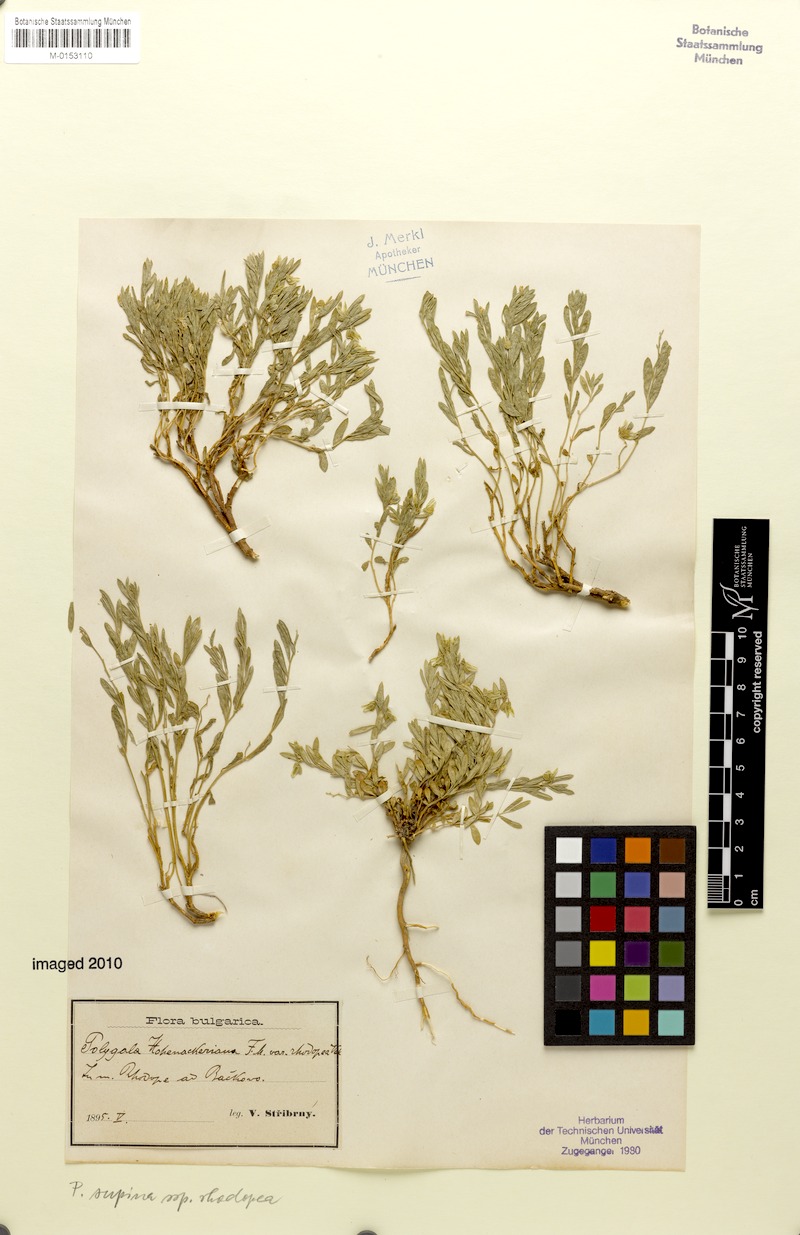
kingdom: Plantae
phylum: Tracheophyta
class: Magnoliopsida
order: Fabales
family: Polygalaceae
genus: Polygala
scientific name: Polygala supina
